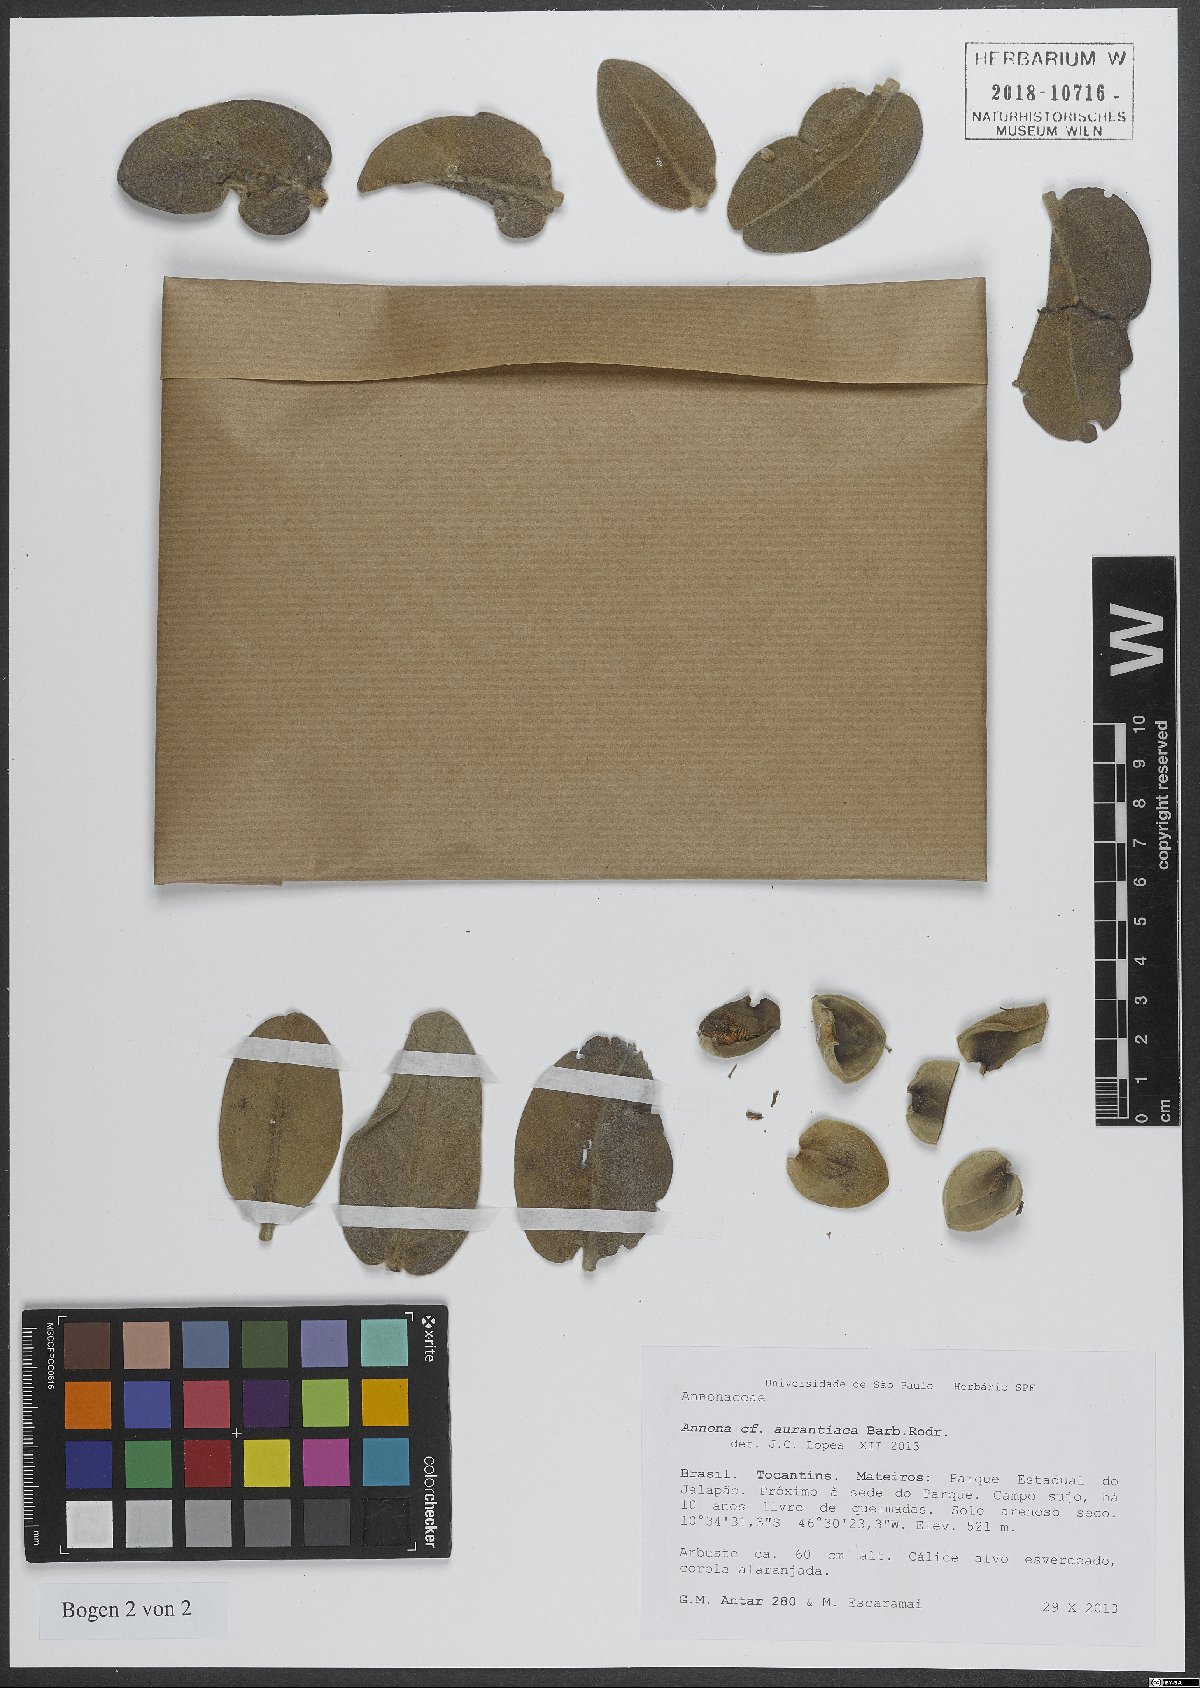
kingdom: Plantae
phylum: Tracheophyta
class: Magnoliopsida
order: Magnoliales
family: Annonaceae
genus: Annona
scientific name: Annona aurantiaca
